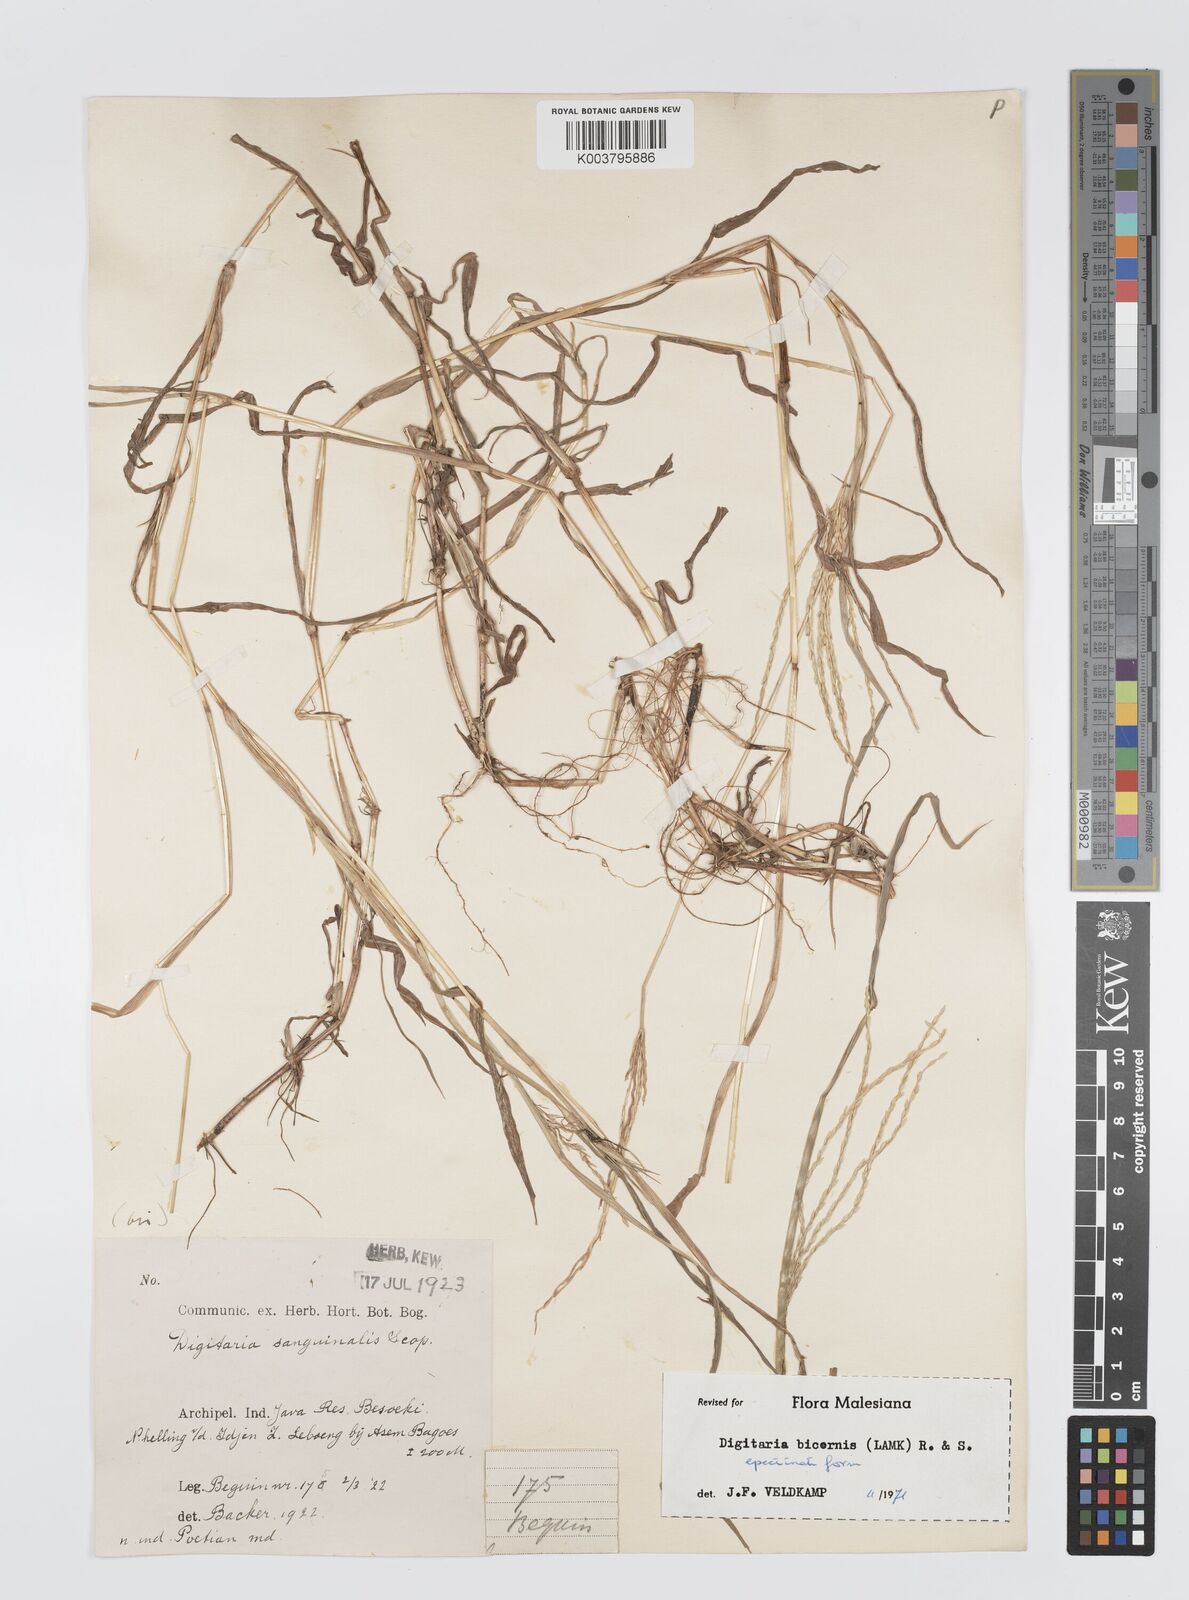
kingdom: Plantae
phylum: Tracheophyta
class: Liliopsida
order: Poales
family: Poaceae
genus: Digitaria
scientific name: Digitaria ciliaris
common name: Tropical finger-grass
